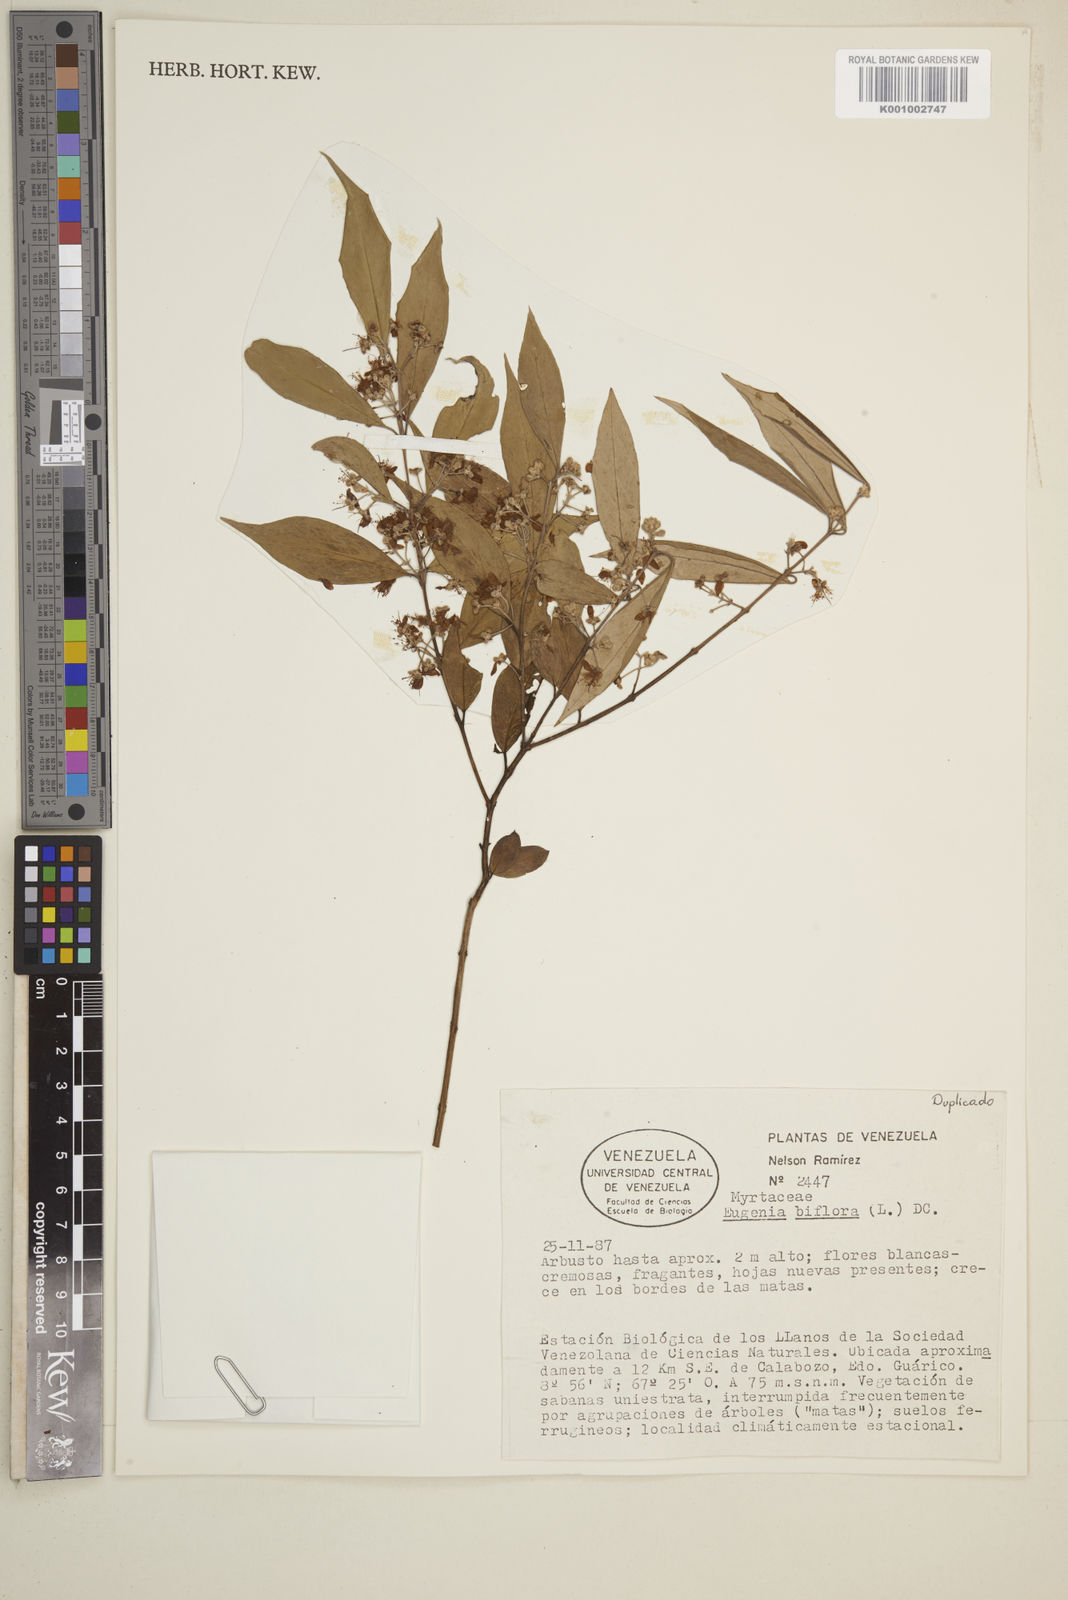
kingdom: Plantae
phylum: Tracheophyta
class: Magnoliopsida
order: Myrtales
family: Myrtaceae
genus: Eugenia
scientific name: Eugenia biflora
